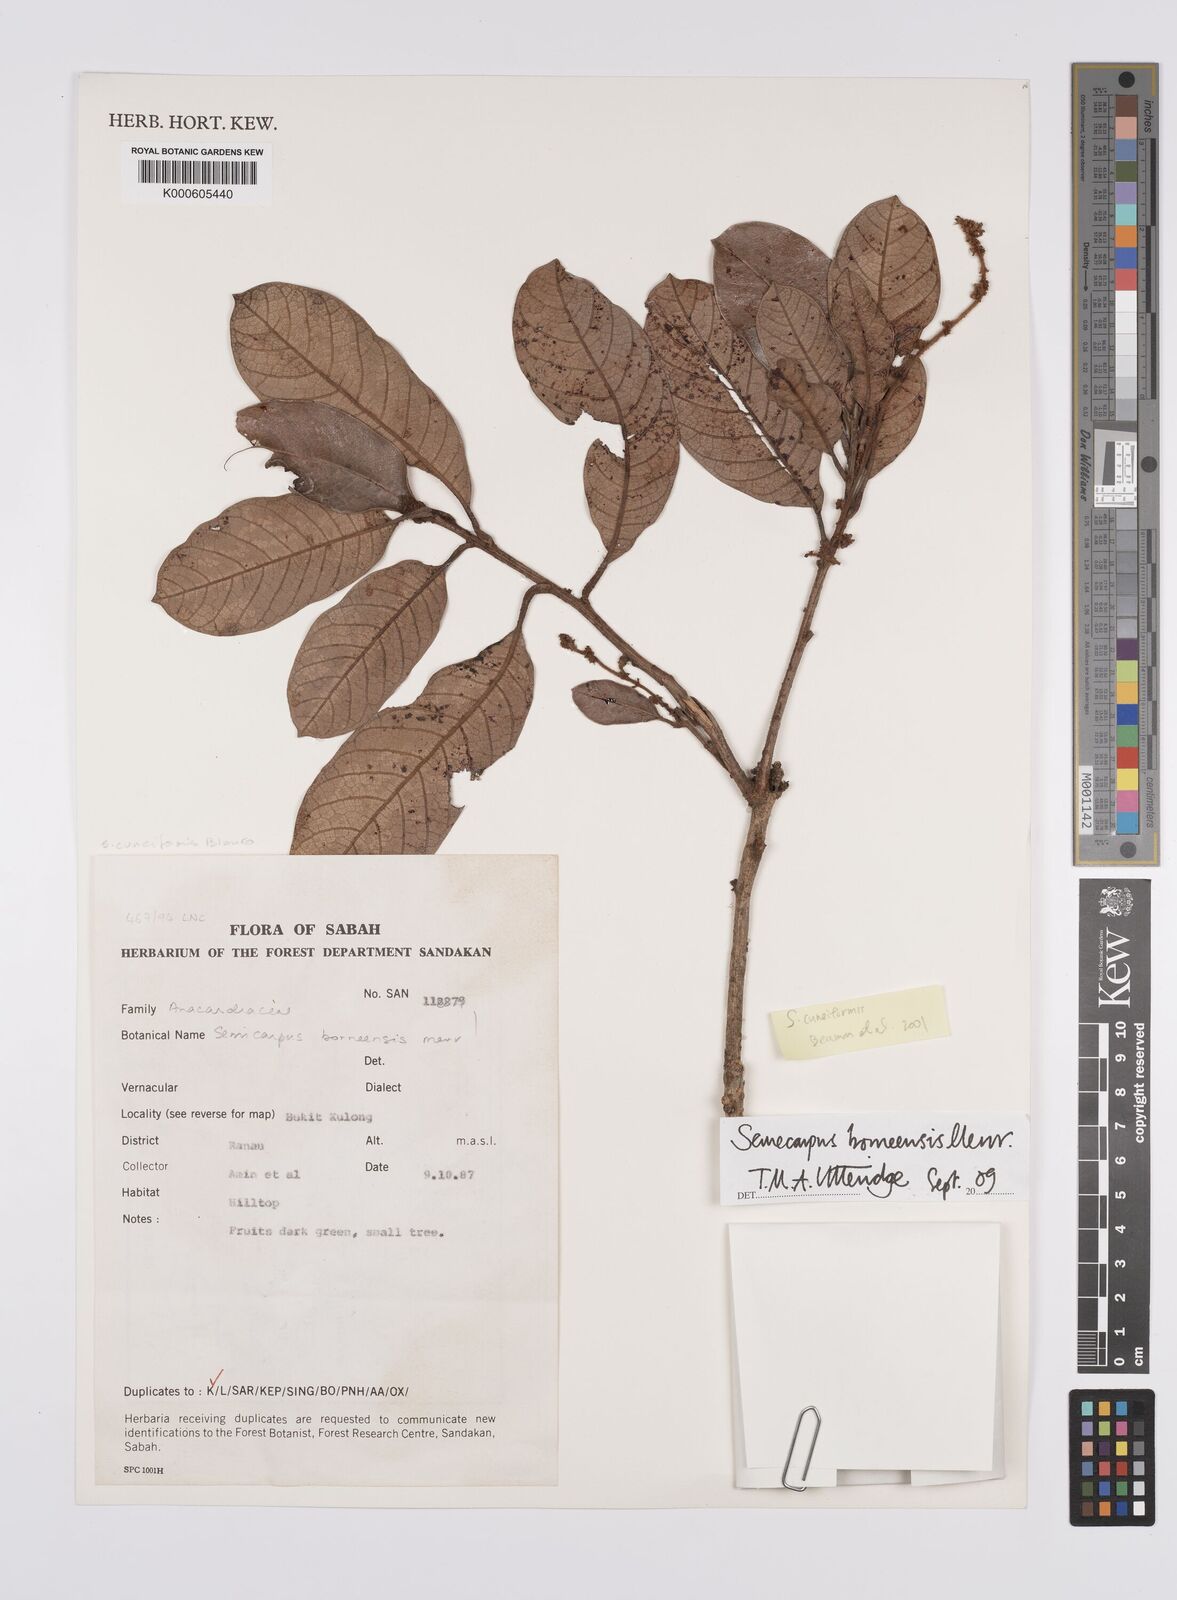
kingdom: Plantae
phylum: Tracheophyta
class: Magnoliopsida
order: Sapindales
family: Anacardiaceae
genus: Semecarpus
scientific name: Semecarpus borneensis
